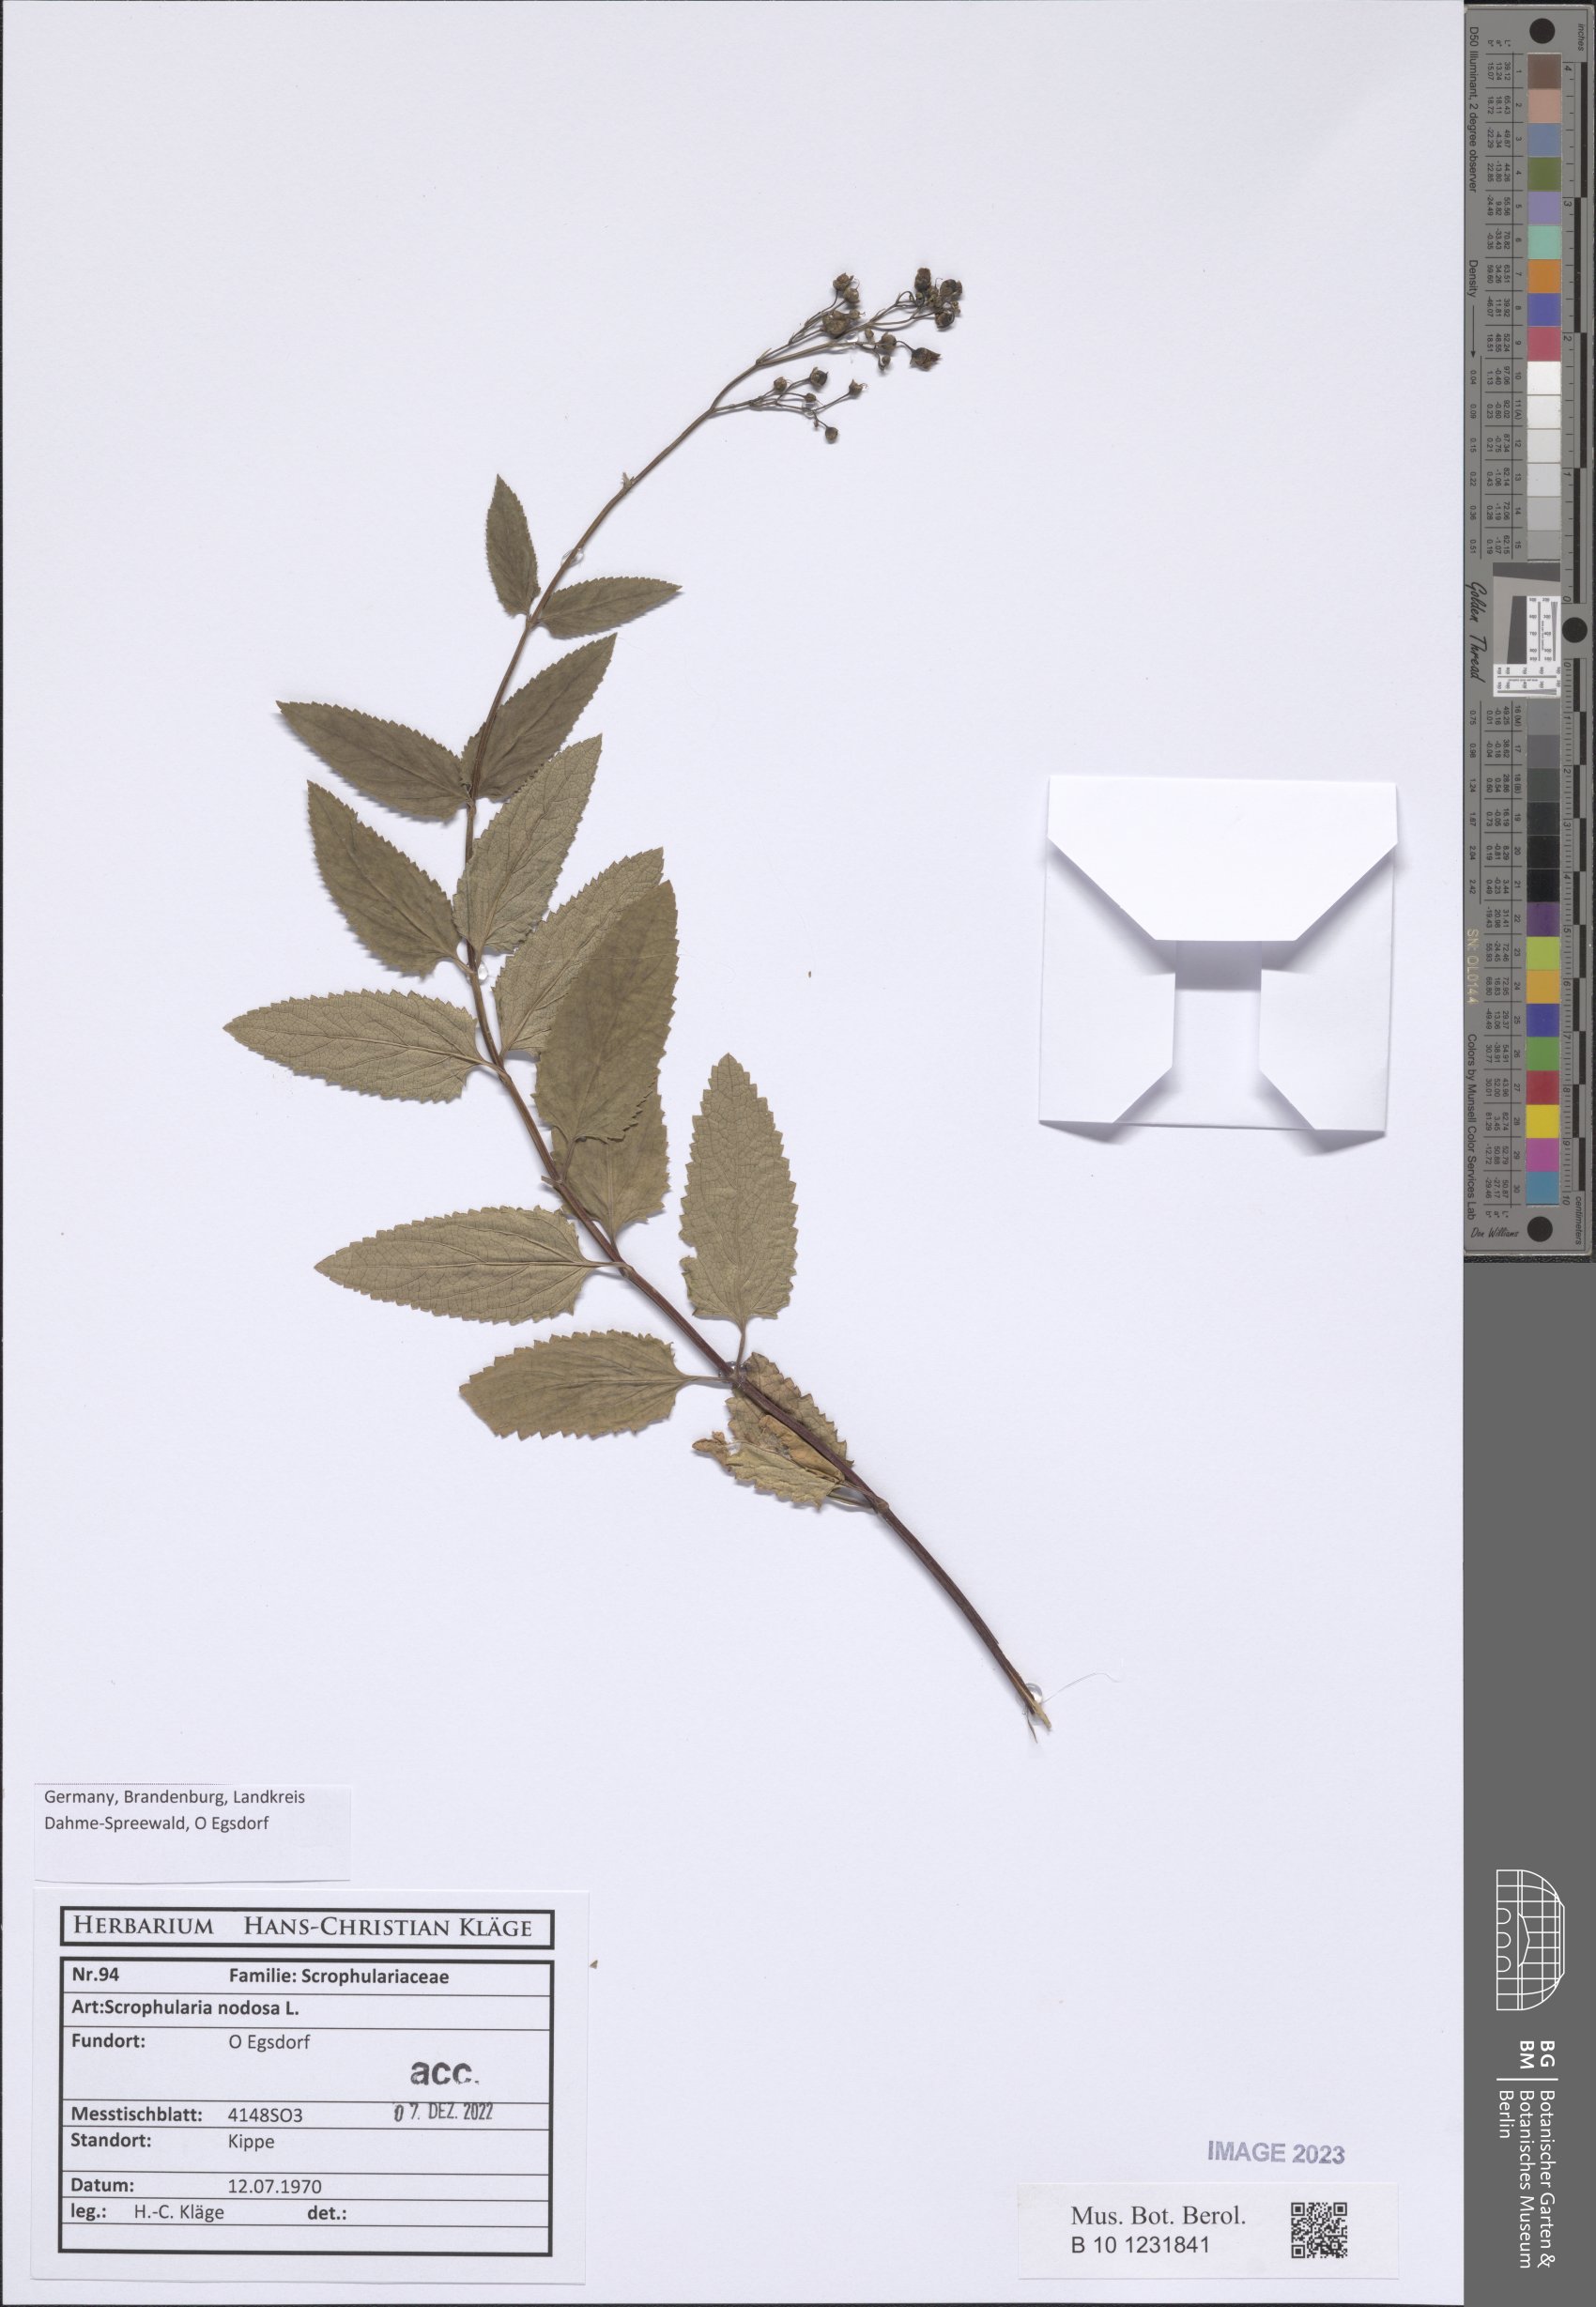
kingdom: Plantae
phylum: Tracheophyta
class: Magnoliopsida
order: Lamiales
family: Scrophulariaceae
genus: Scrophularia
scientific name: Scrophularia nodosa
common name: Common figwort
